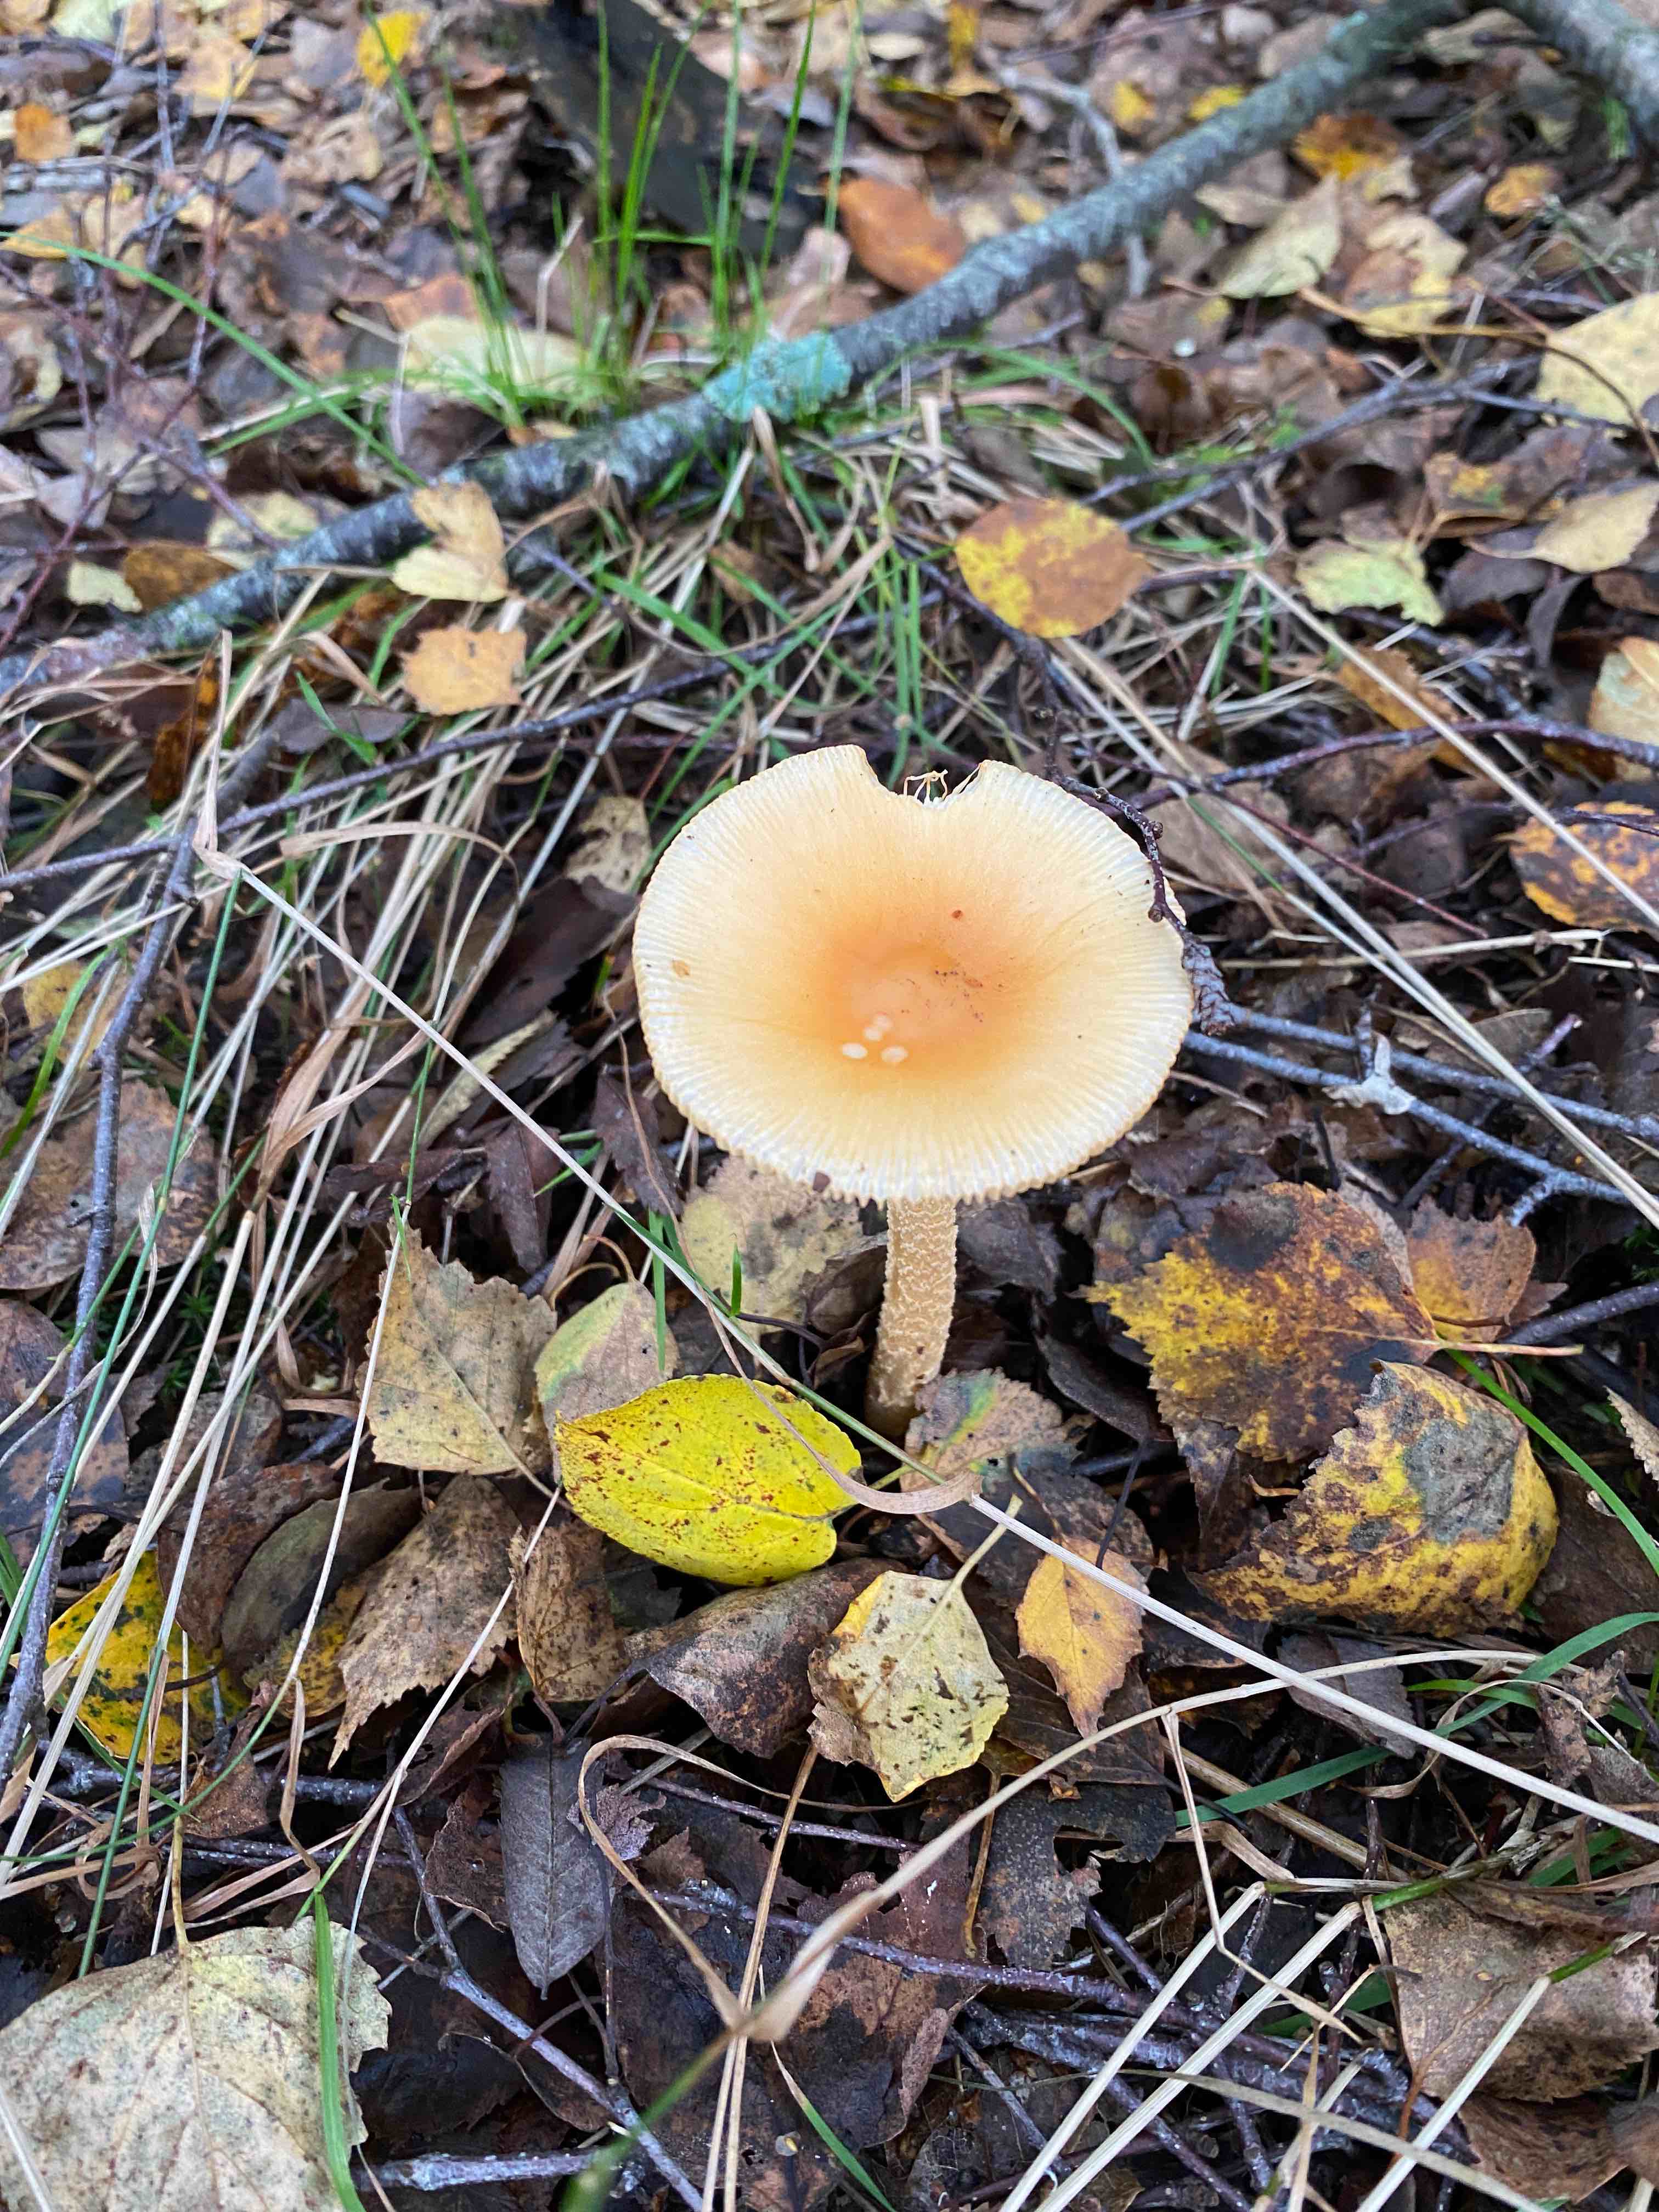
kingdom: Fungi
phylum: Basidiomycota
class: Agaricomycetes
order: Agaricales
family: Amanitaceae
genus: Amanita
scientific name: Amanita crocea
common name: gylden kam-fluesvamp
